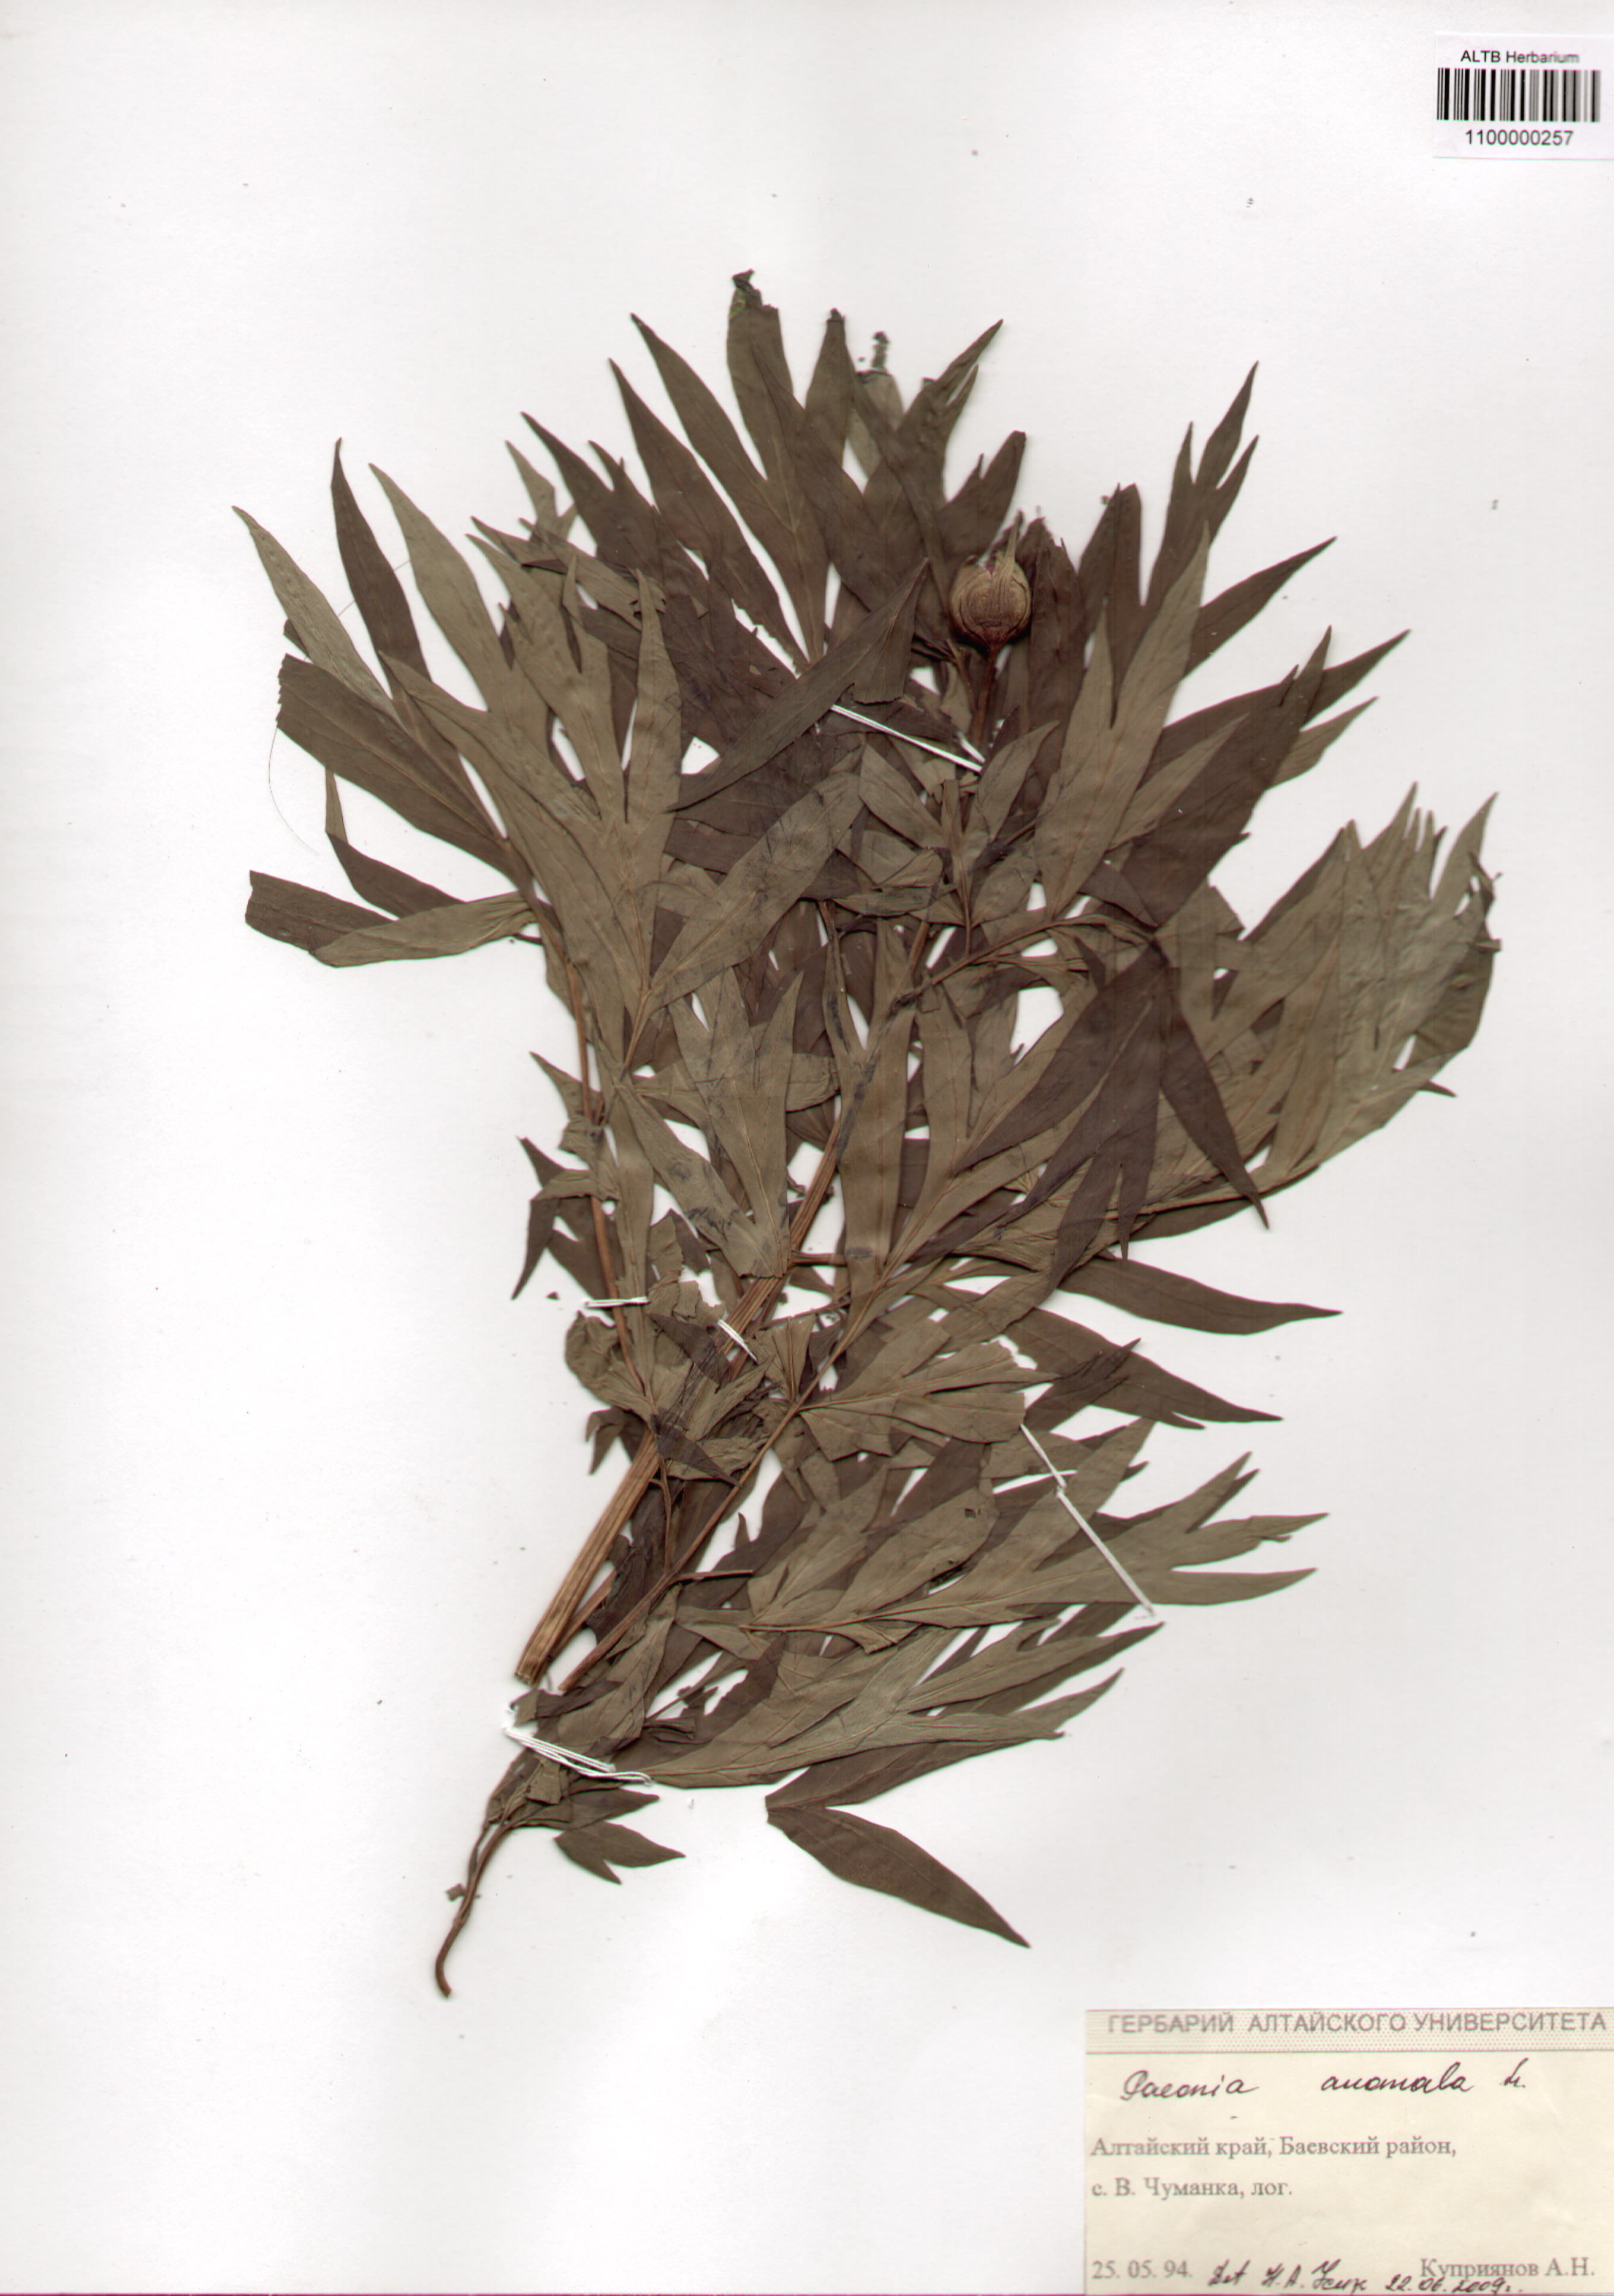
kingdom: Plantae
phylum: Tracheophyta
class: Magnoliopsida
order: Saxifragales
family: Paeoniaceae
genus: Paeonia
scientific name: Paeonia anomala
